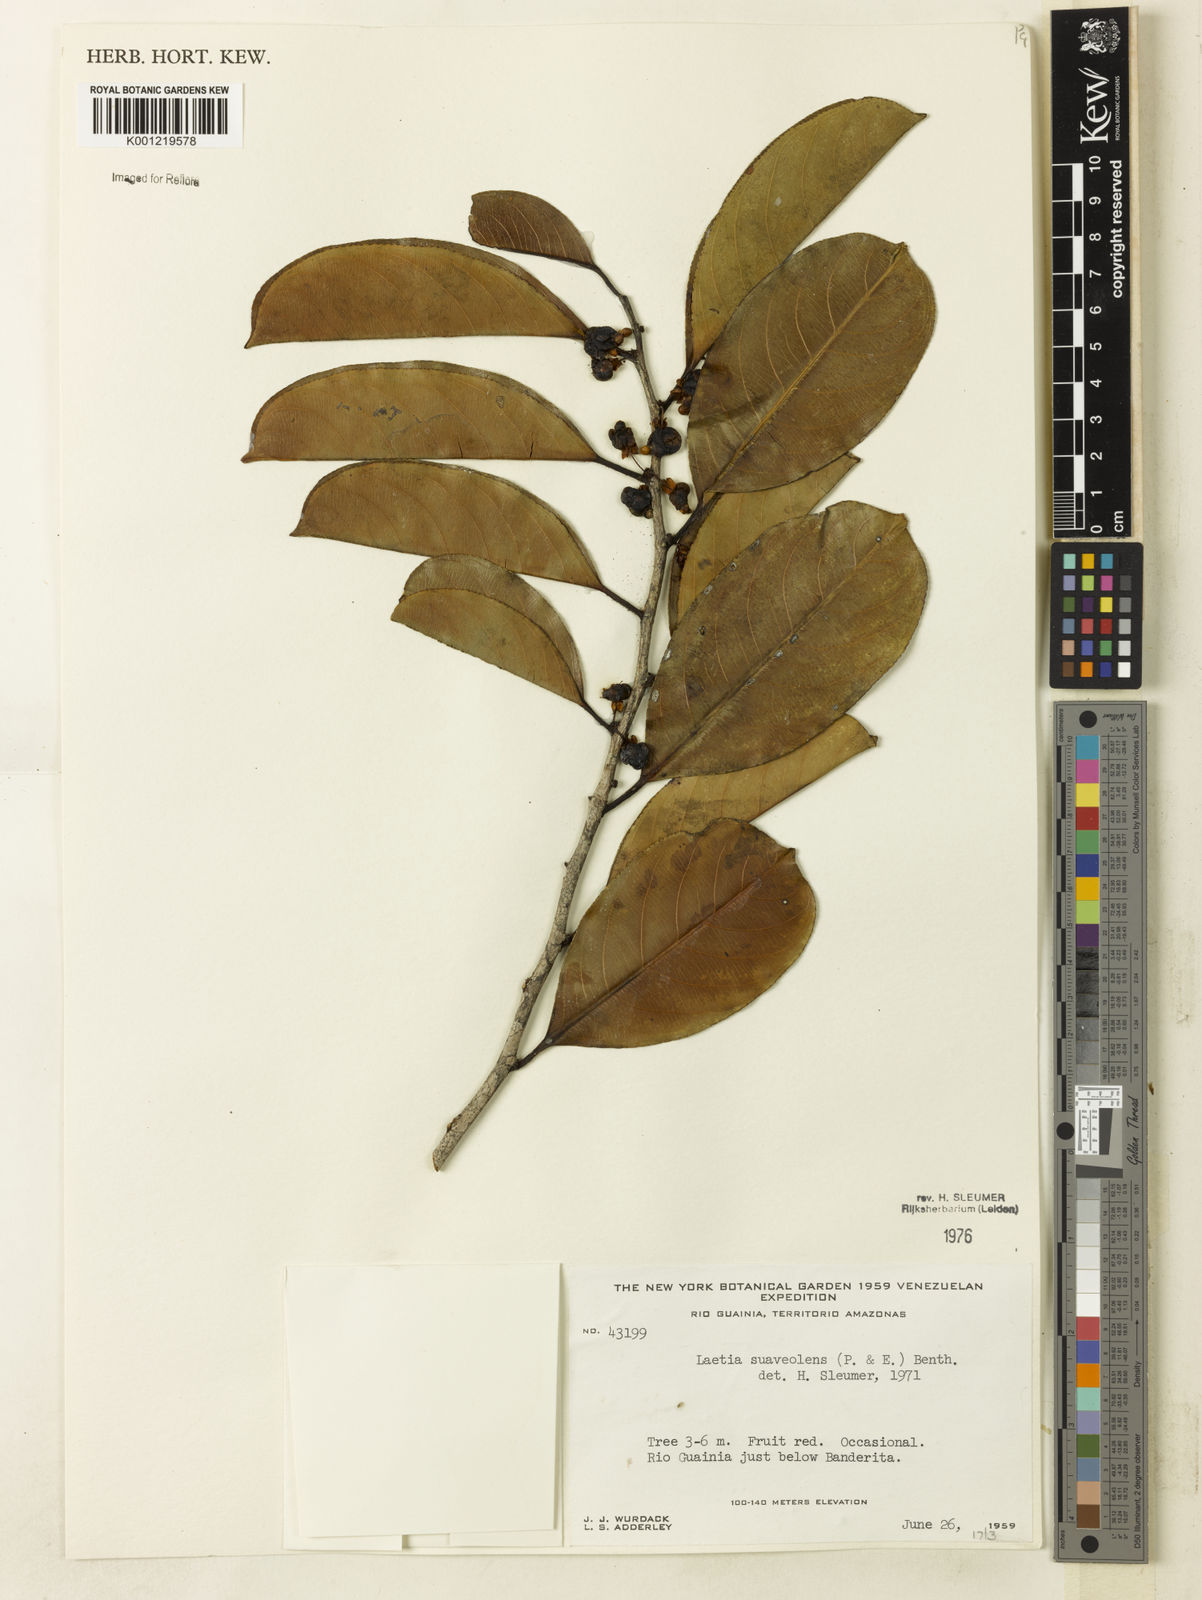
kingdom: Plantae
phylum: Tracheophyta
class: Magnoliopsida
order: Malpighiales
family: Salicaceae
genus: Casearia
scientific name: Casearia suaveolens
